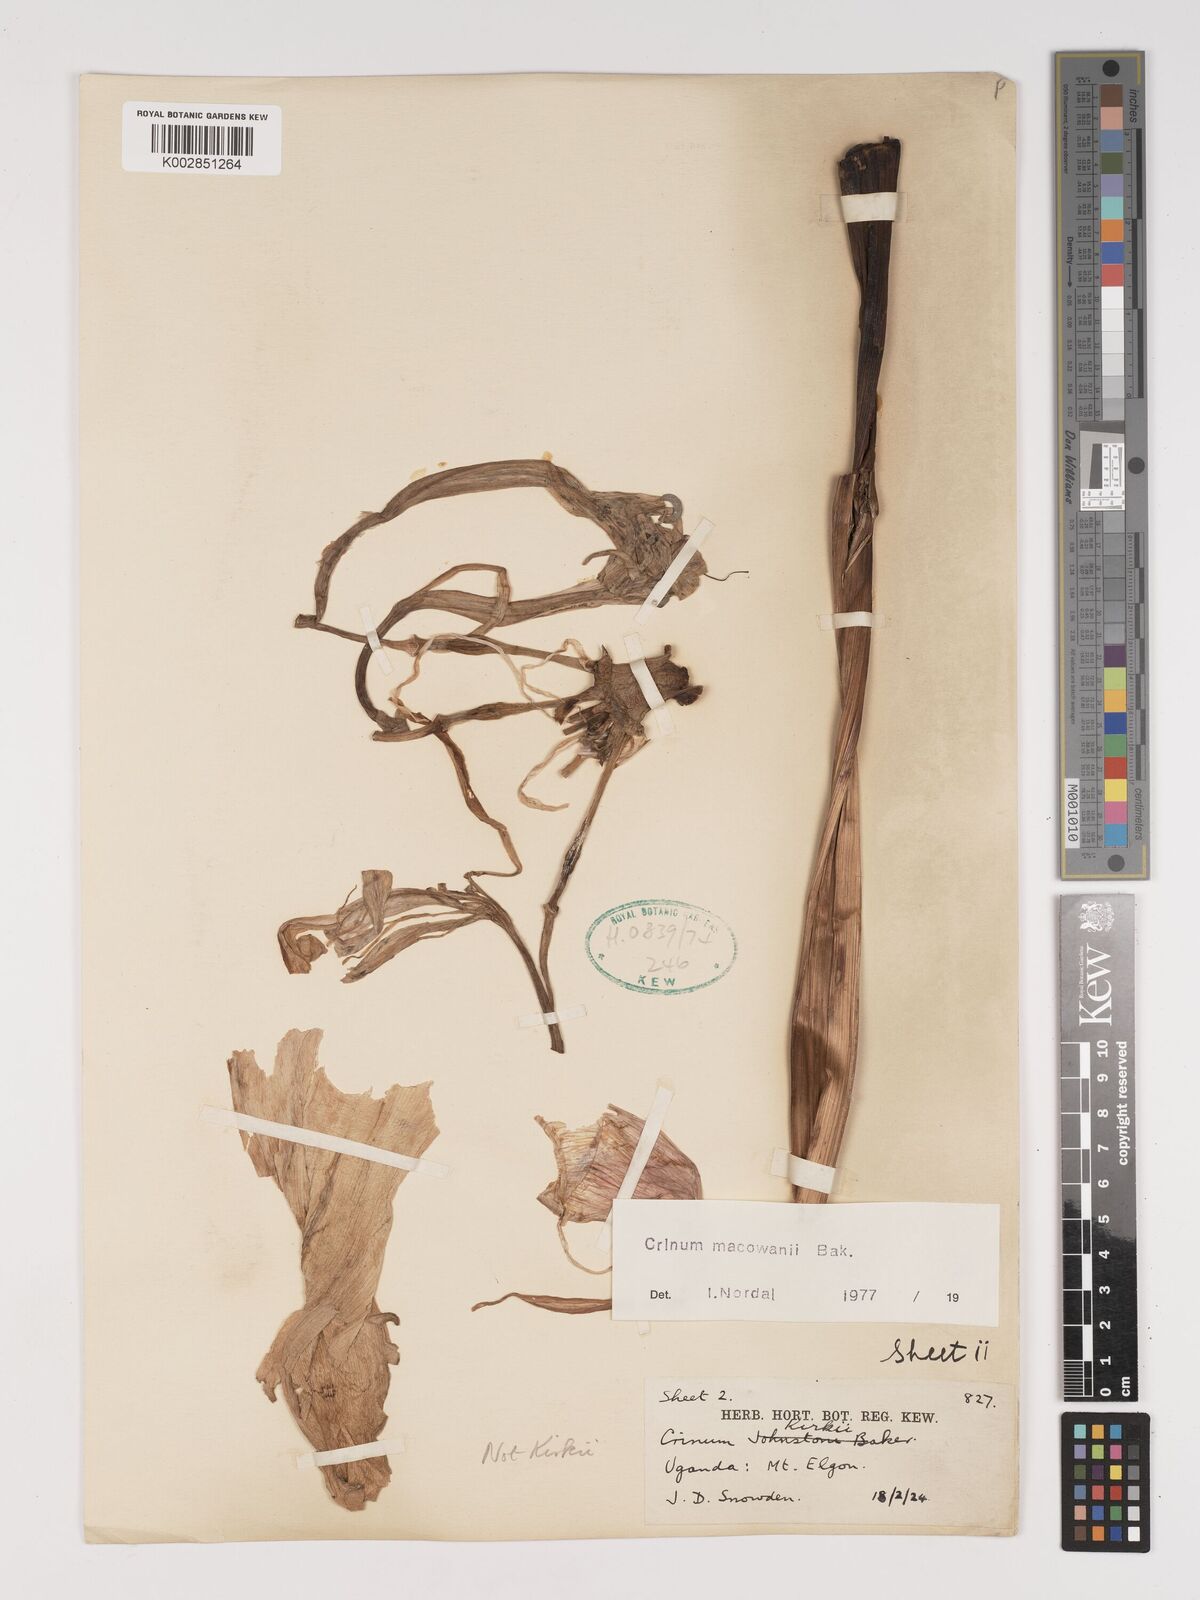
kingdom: Plantae
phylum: Tracheophyta
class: Liliopsida
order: Asparagales
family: Amaryllidaceae
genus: Crinum
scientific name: Crinum macowanii
